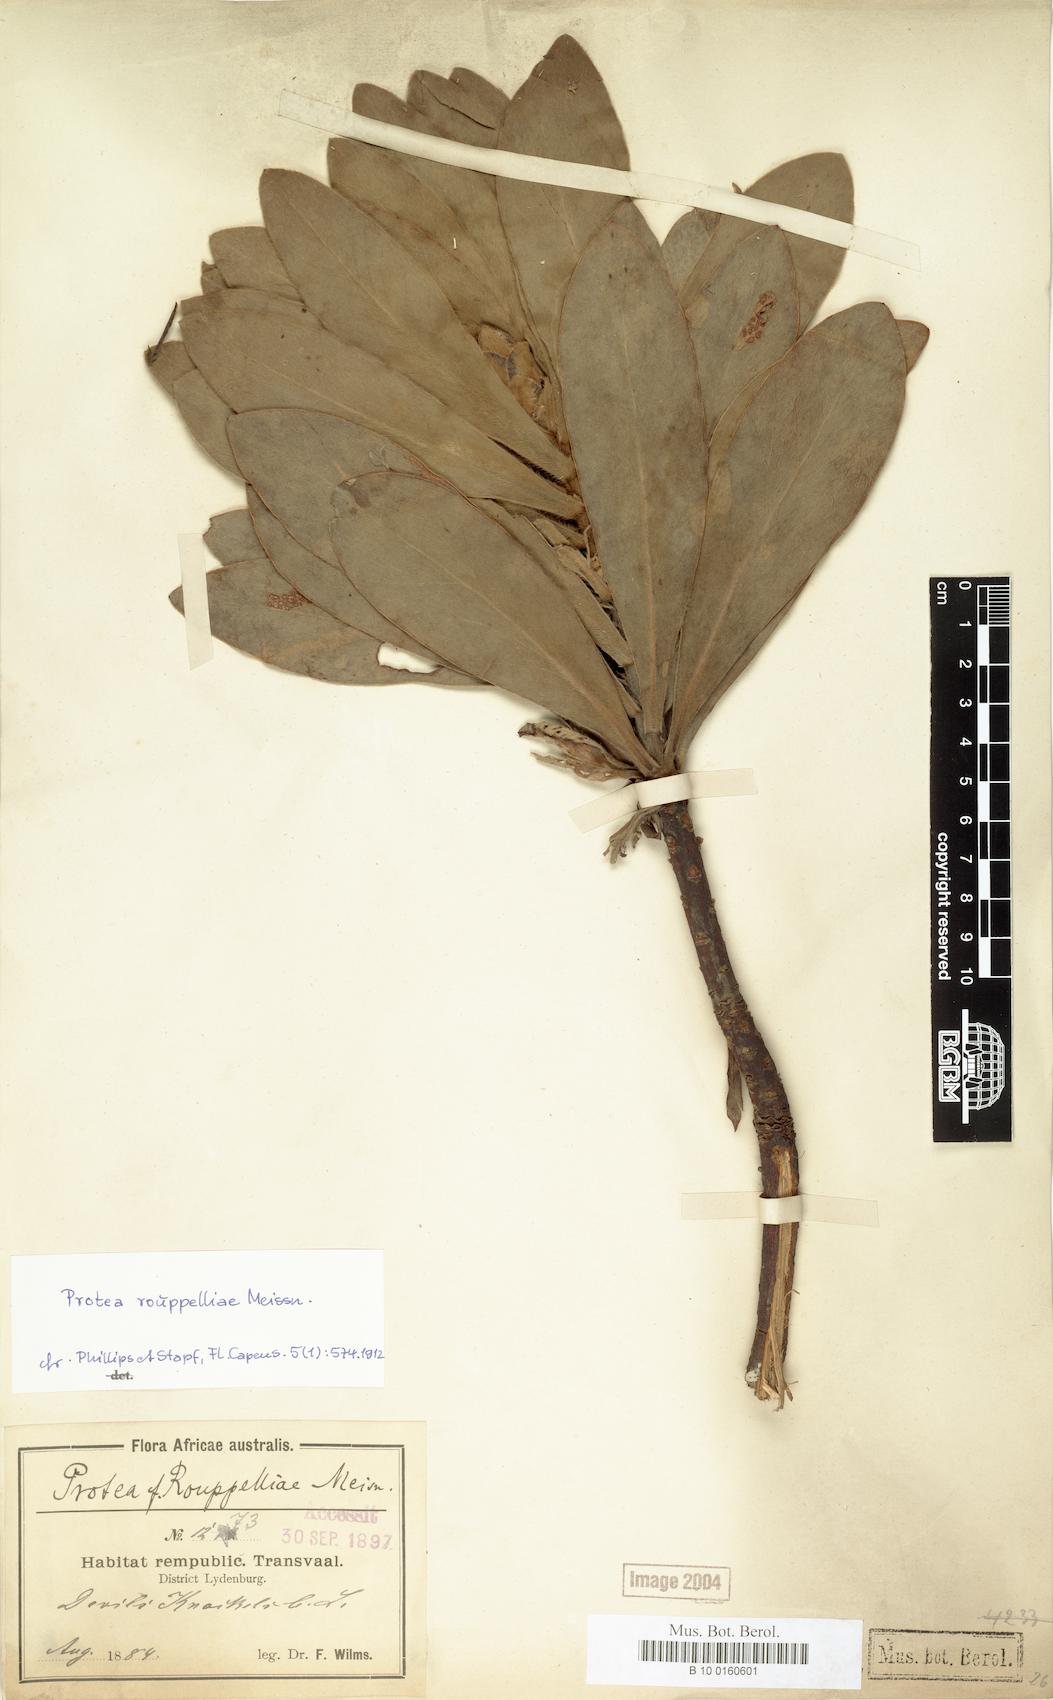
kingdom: Plantae
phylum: Tracheophyta
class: Magnoliopsida
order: Proteales
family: Proteaceae
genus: Protea
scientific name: Protea roupelliae
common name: Silver sugarbush
